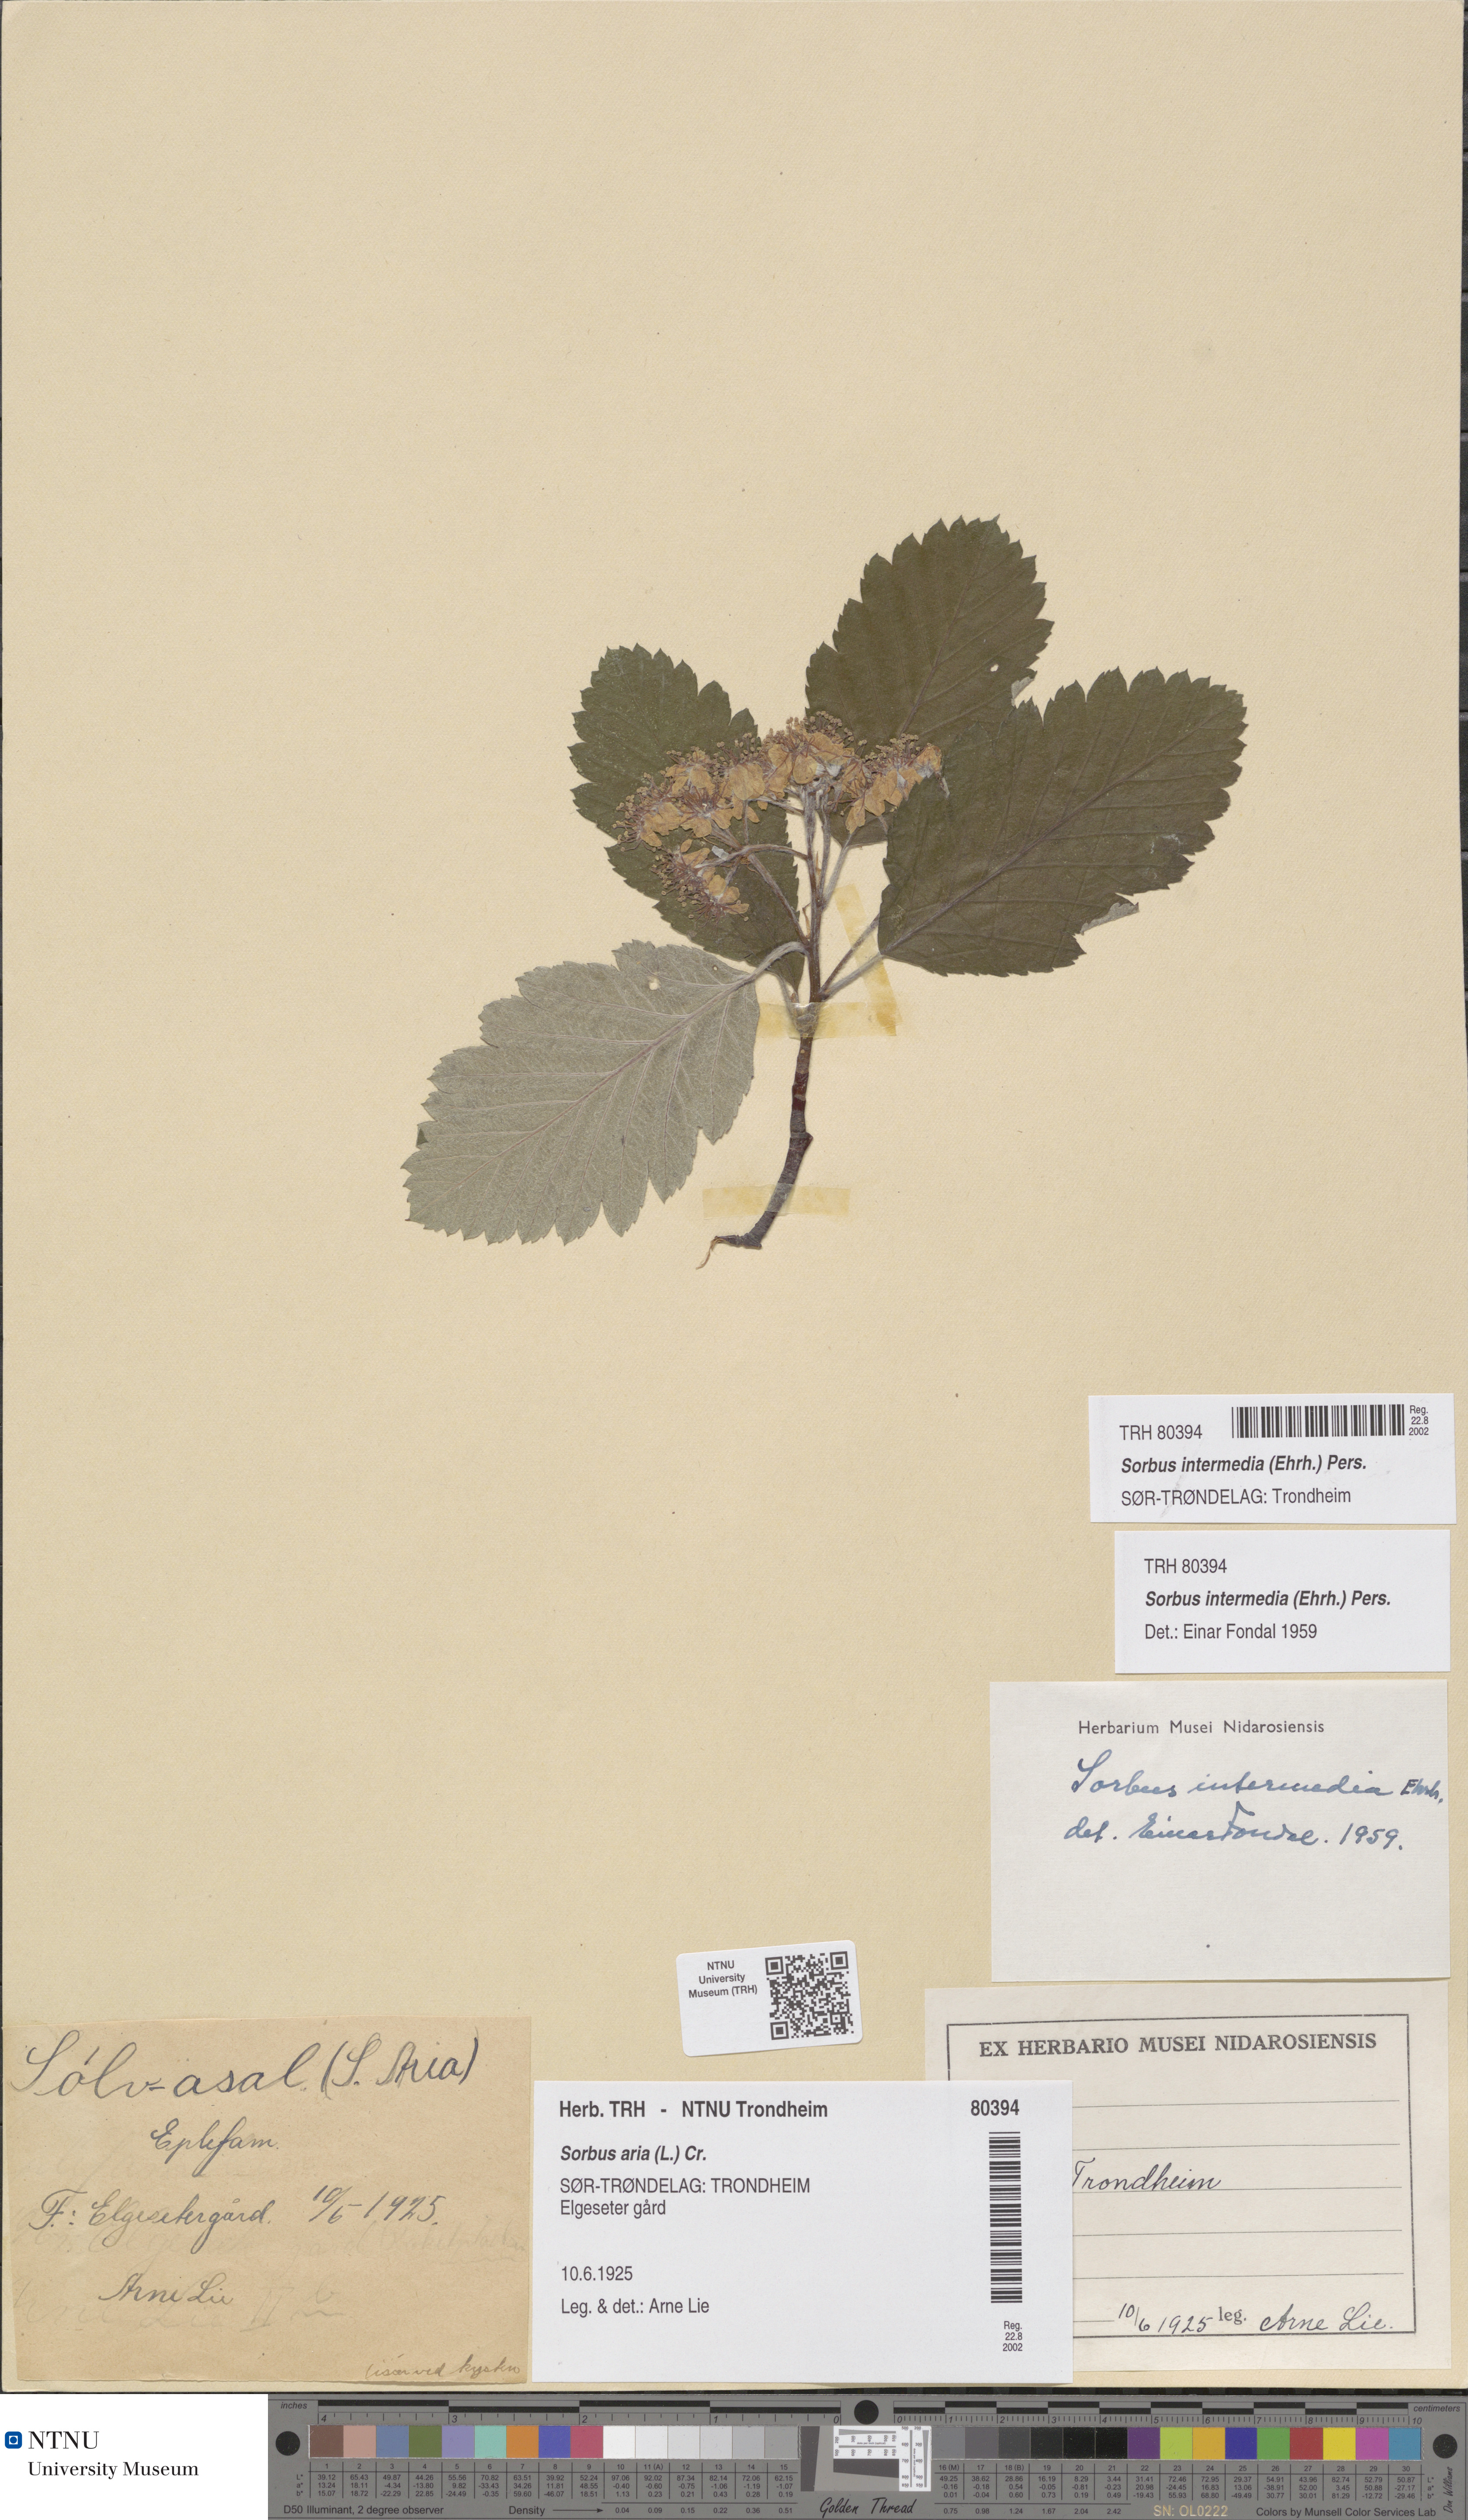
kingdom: Plantae
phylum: Tracheophyta
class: Magnoliopsida
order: Rosales
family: Rosaceae
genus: Scandosorbus
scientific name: Scandosorbus intermedia
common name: Swedish whitebeam
